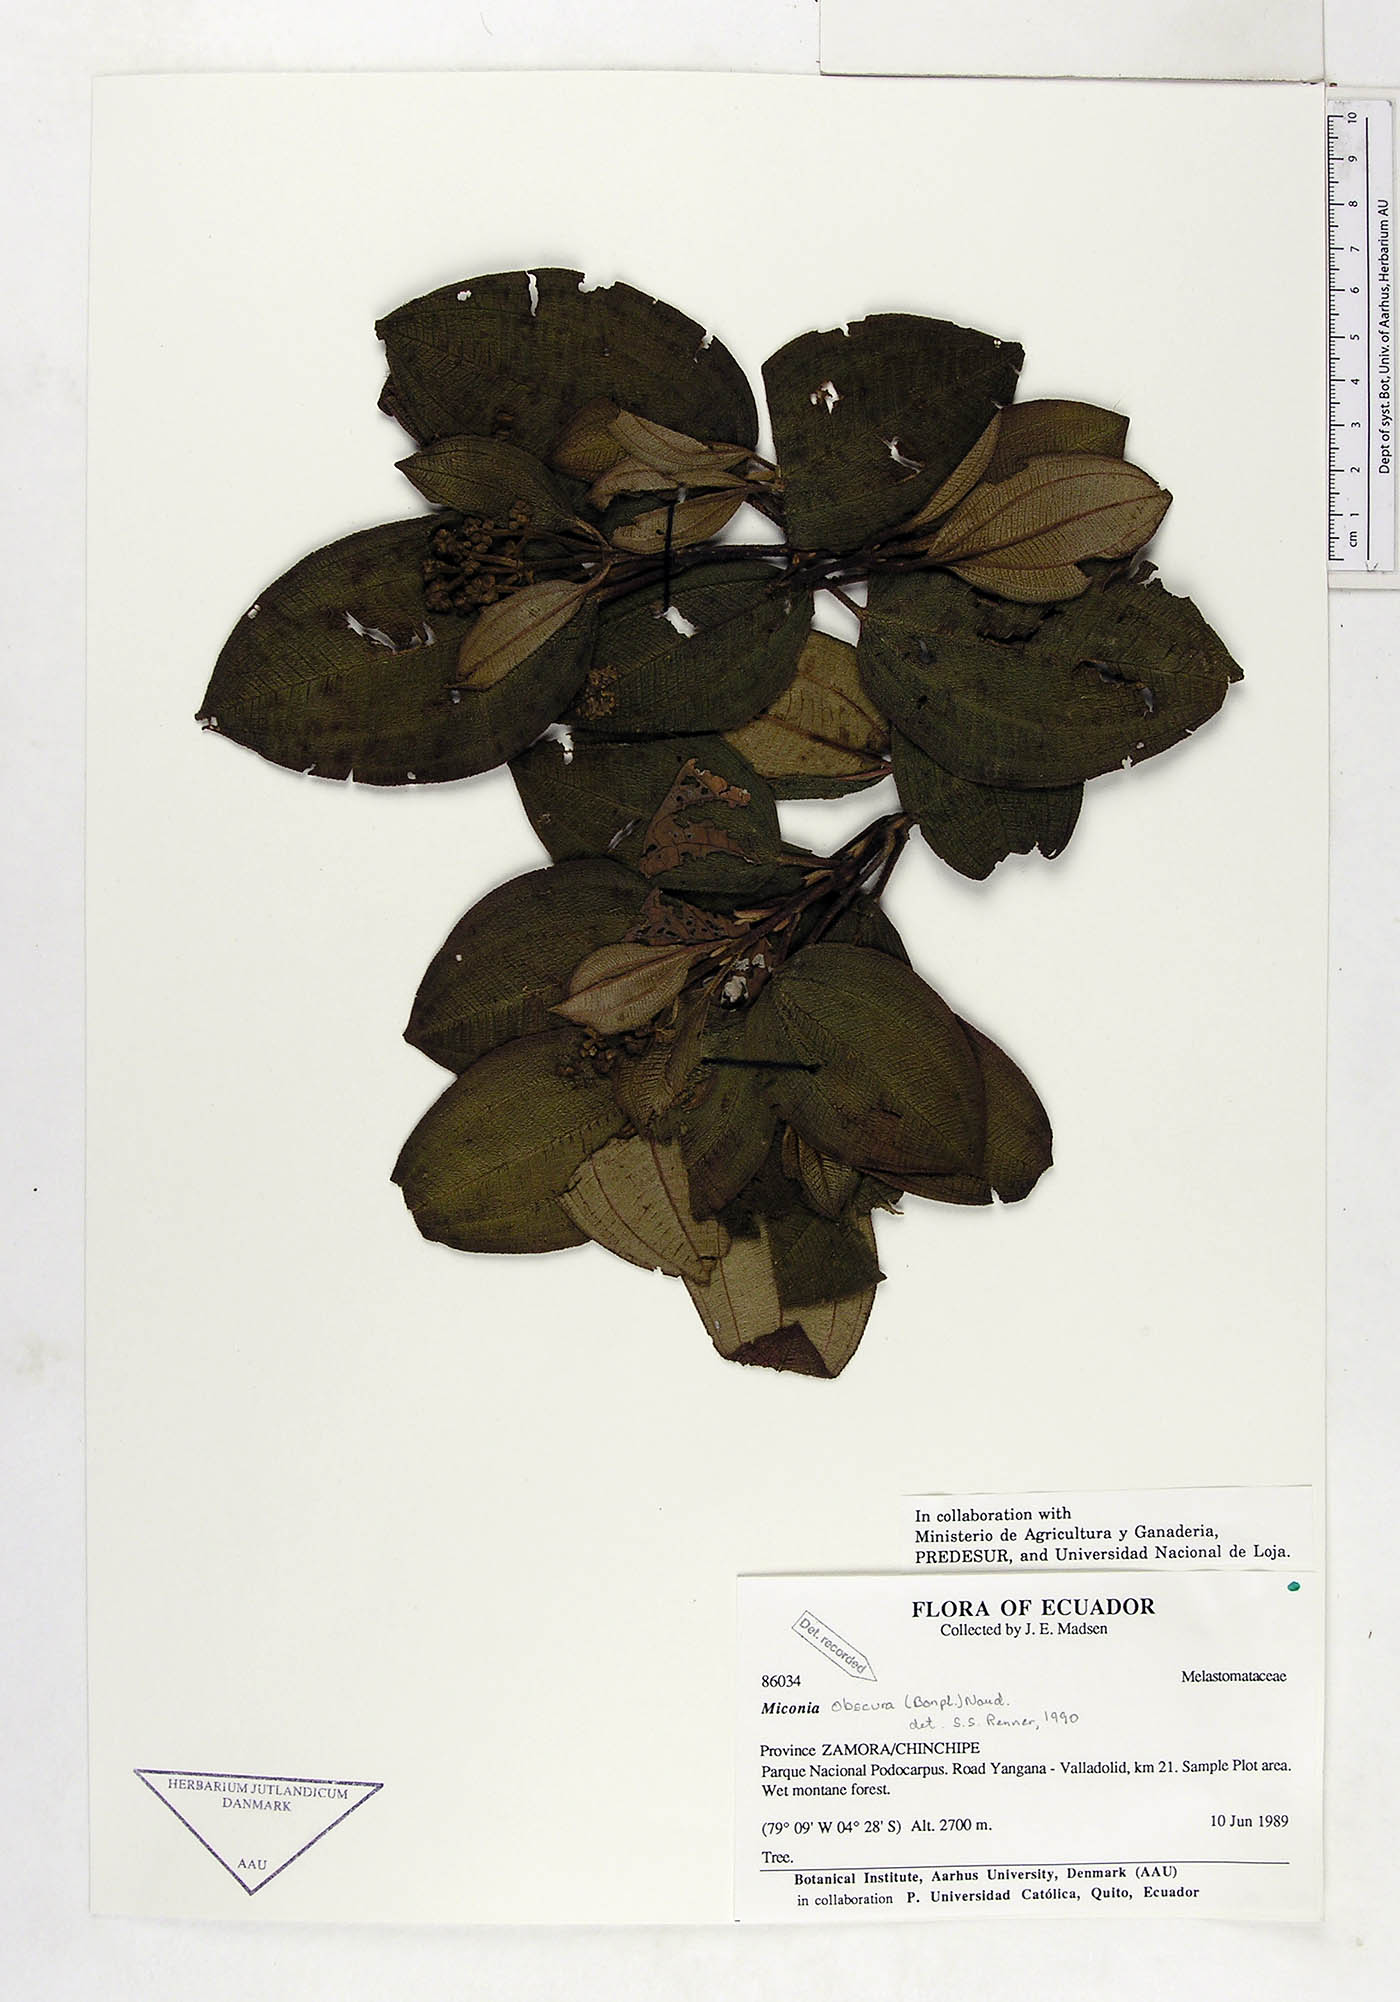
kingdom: Plantae
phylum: Tracheophyta
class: Magnoliopsida
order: Myrtales
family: Melastomataceae
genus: Miconia
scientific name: Miconia obscura
